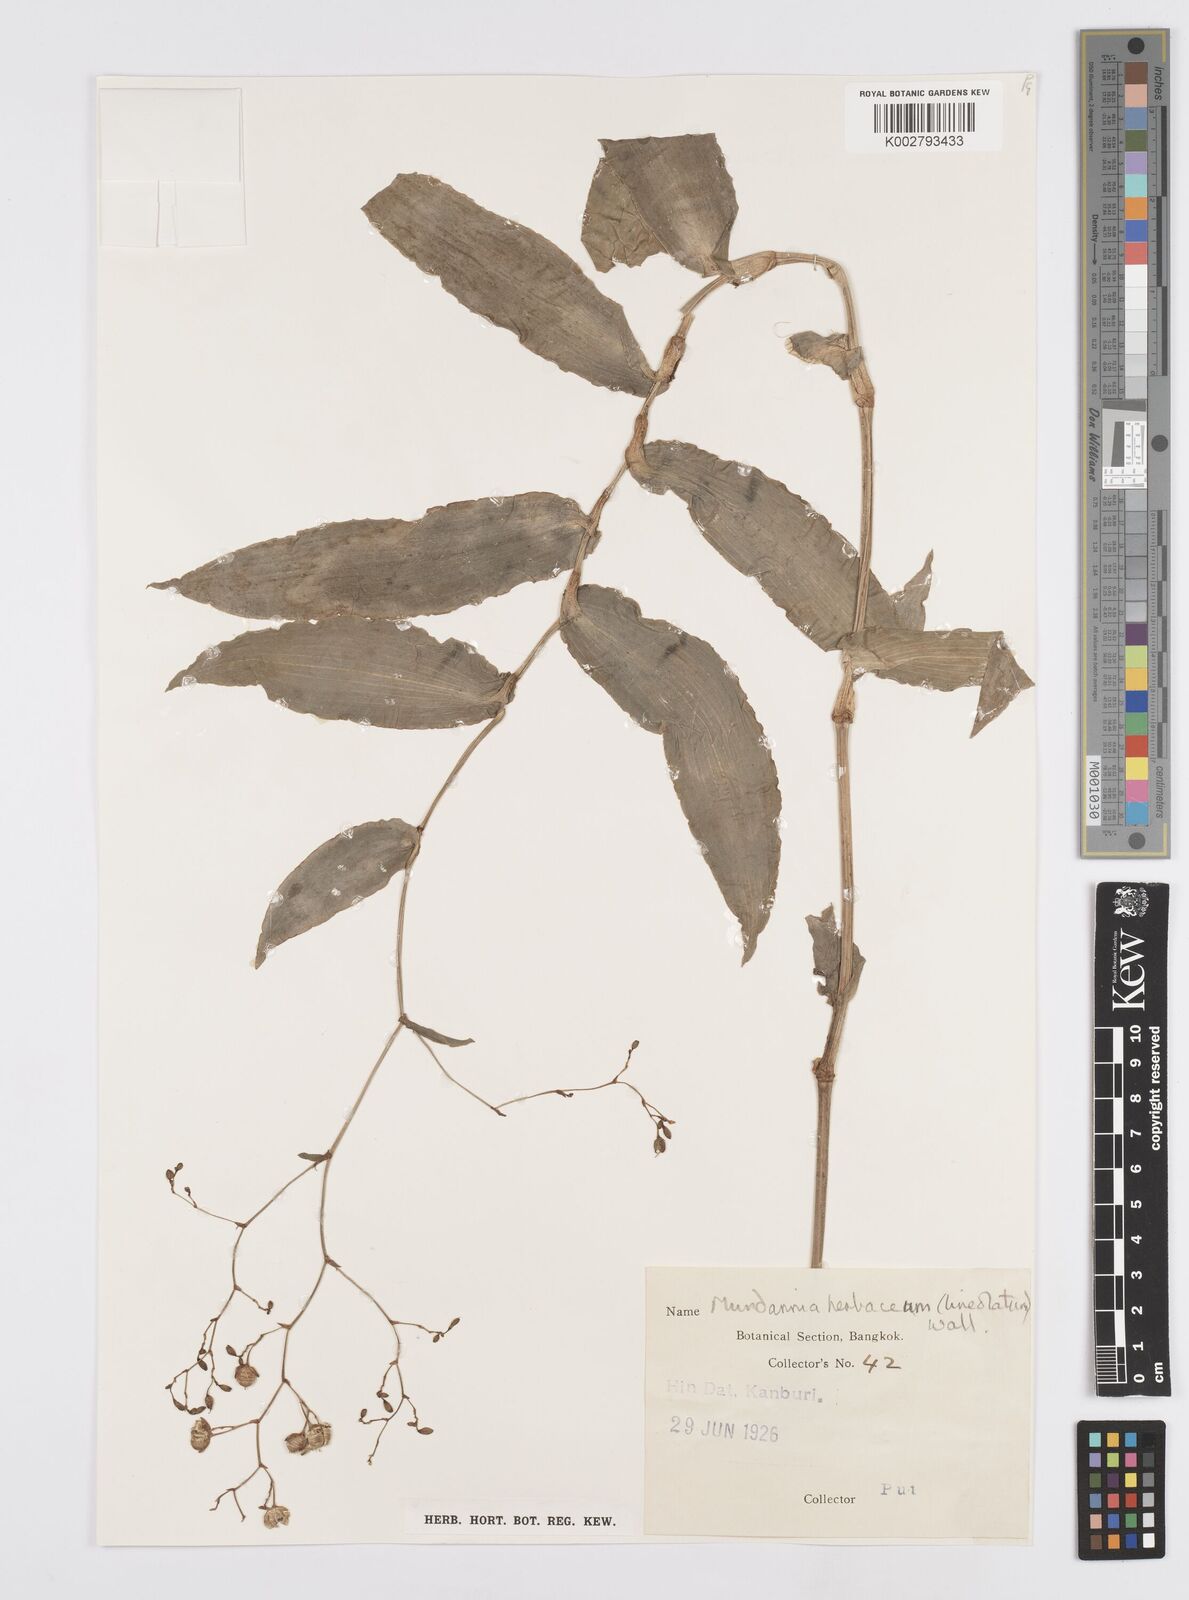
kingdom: Plantae
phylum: Tracheophyta
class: Liliopsida
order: Commelinales
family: Commelinaceae
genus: Murdannia
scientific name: Murdannia
